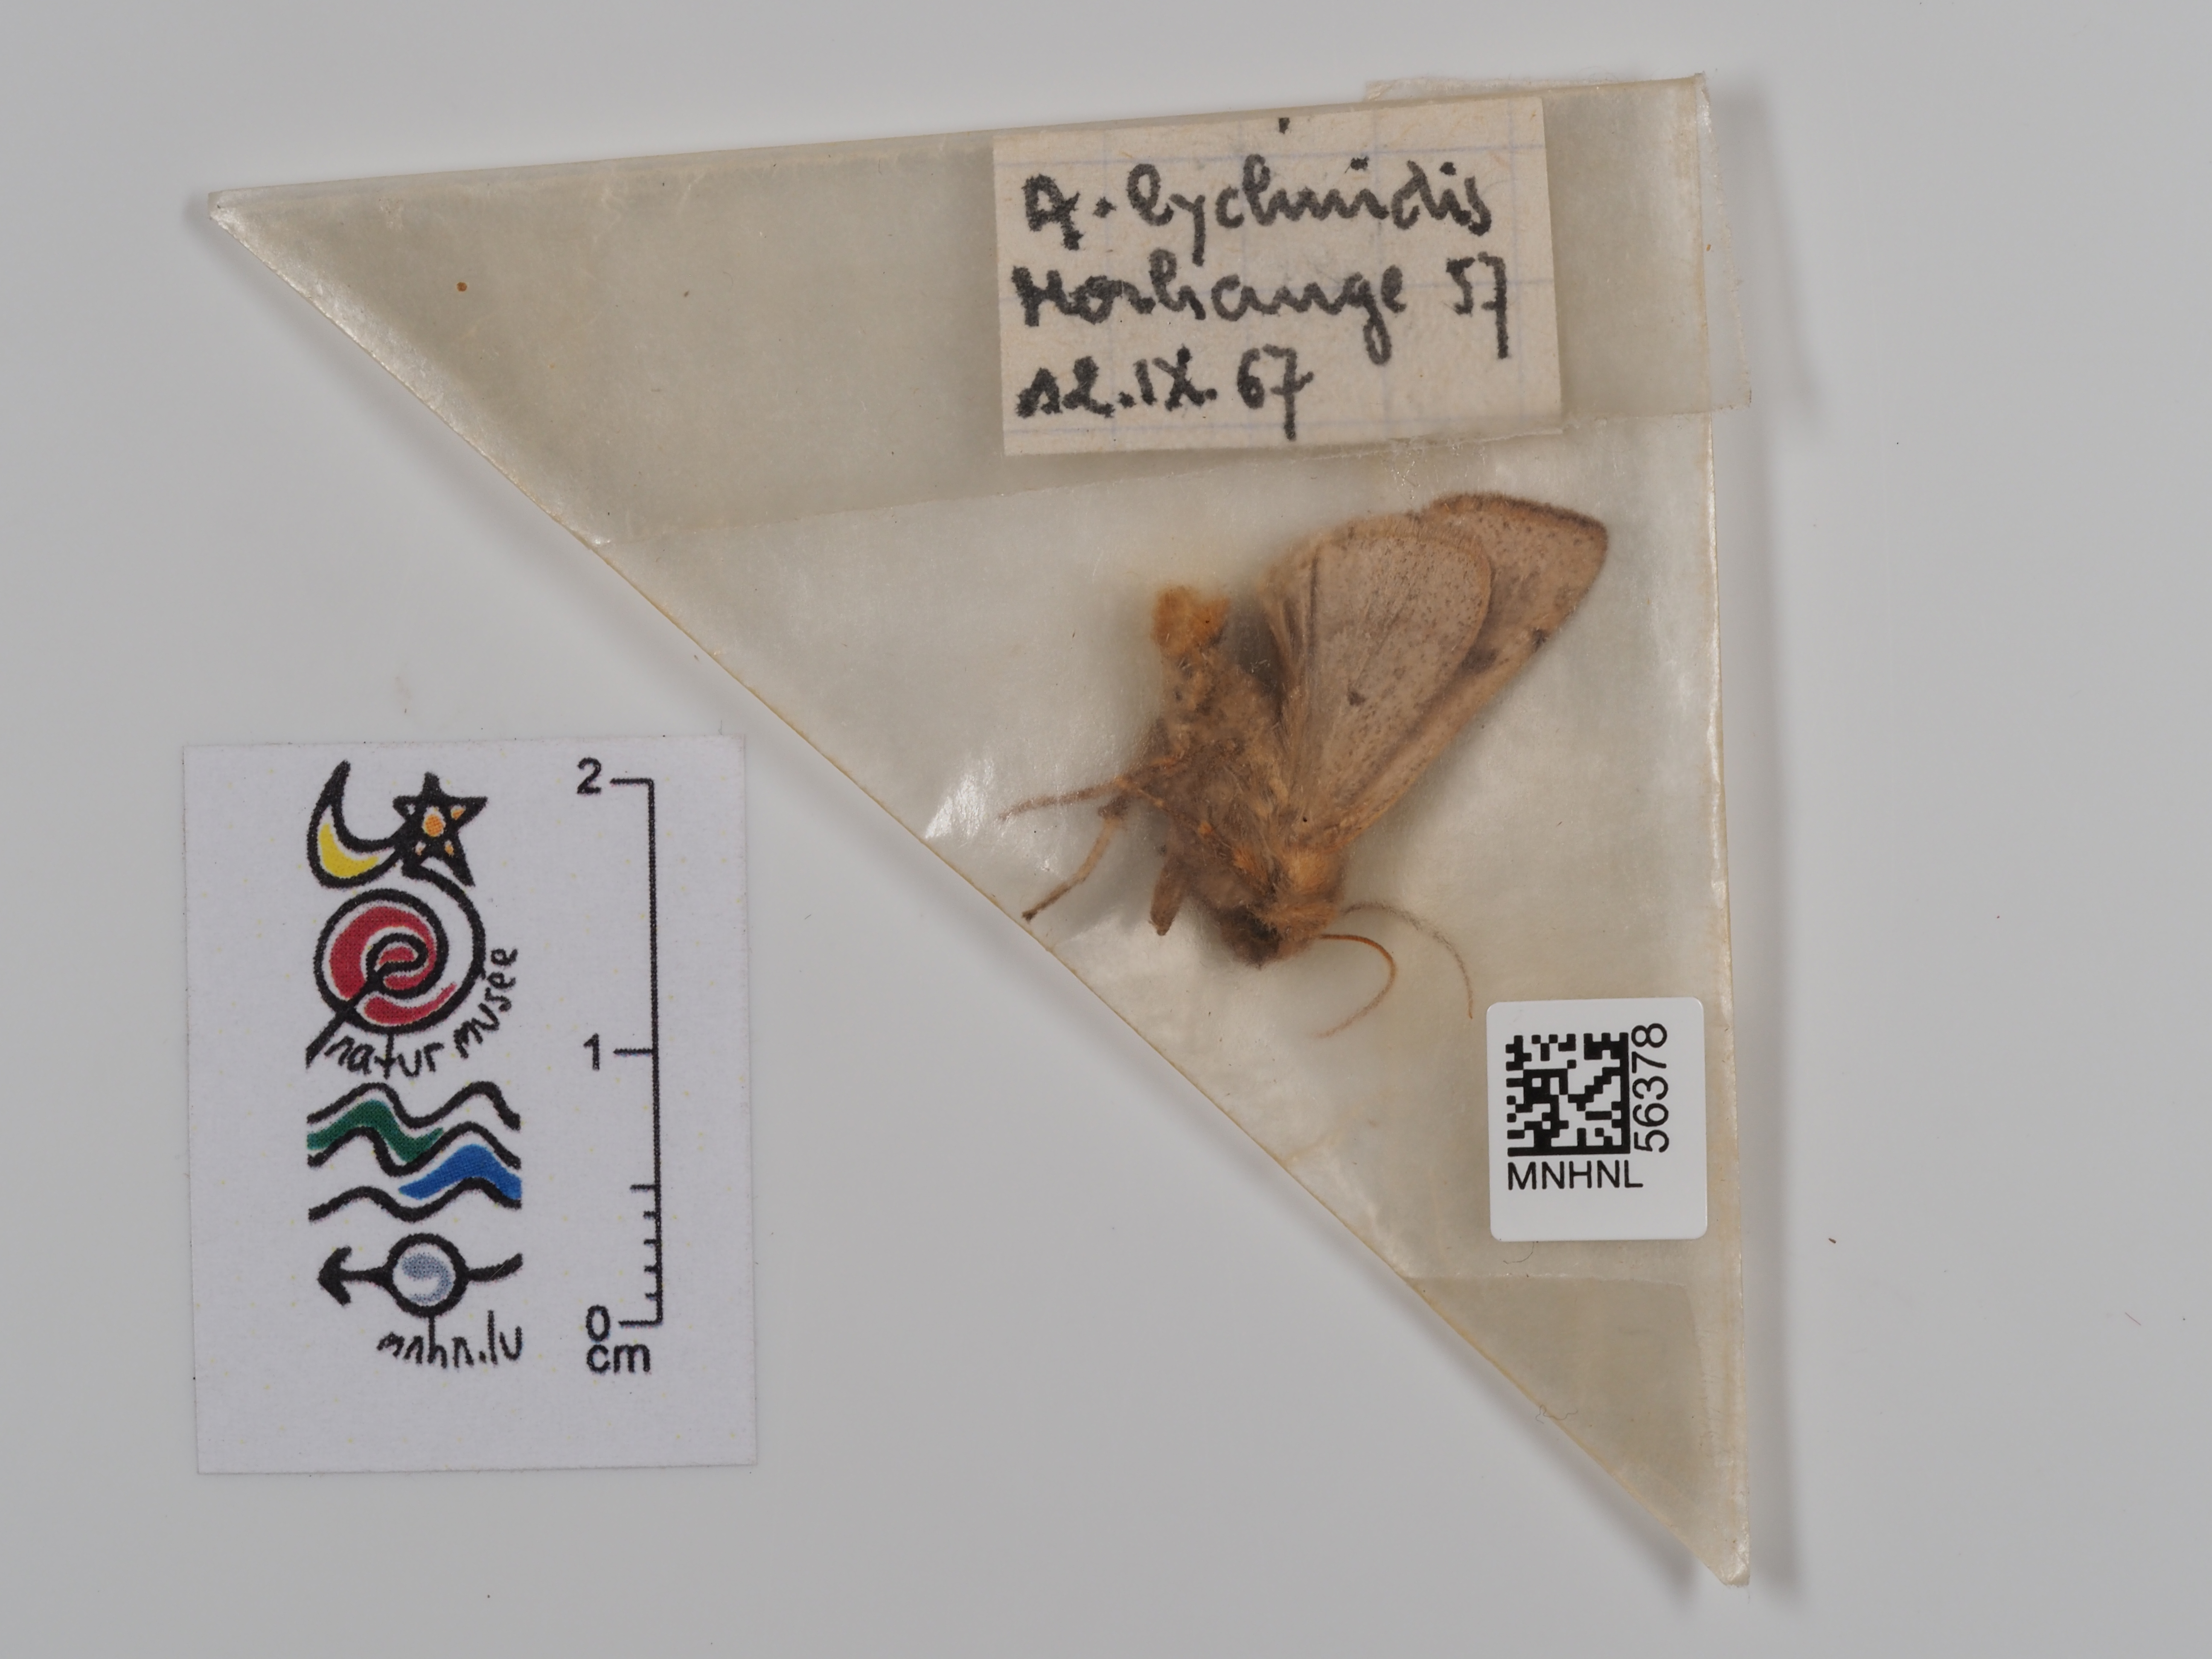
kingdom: Animalia
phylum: Arthropoda
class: Insecta
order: Lepidoptera
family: Noctuidae
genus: Agrochola
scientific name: Agrochola lychnidis
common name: Beaded chestnut
